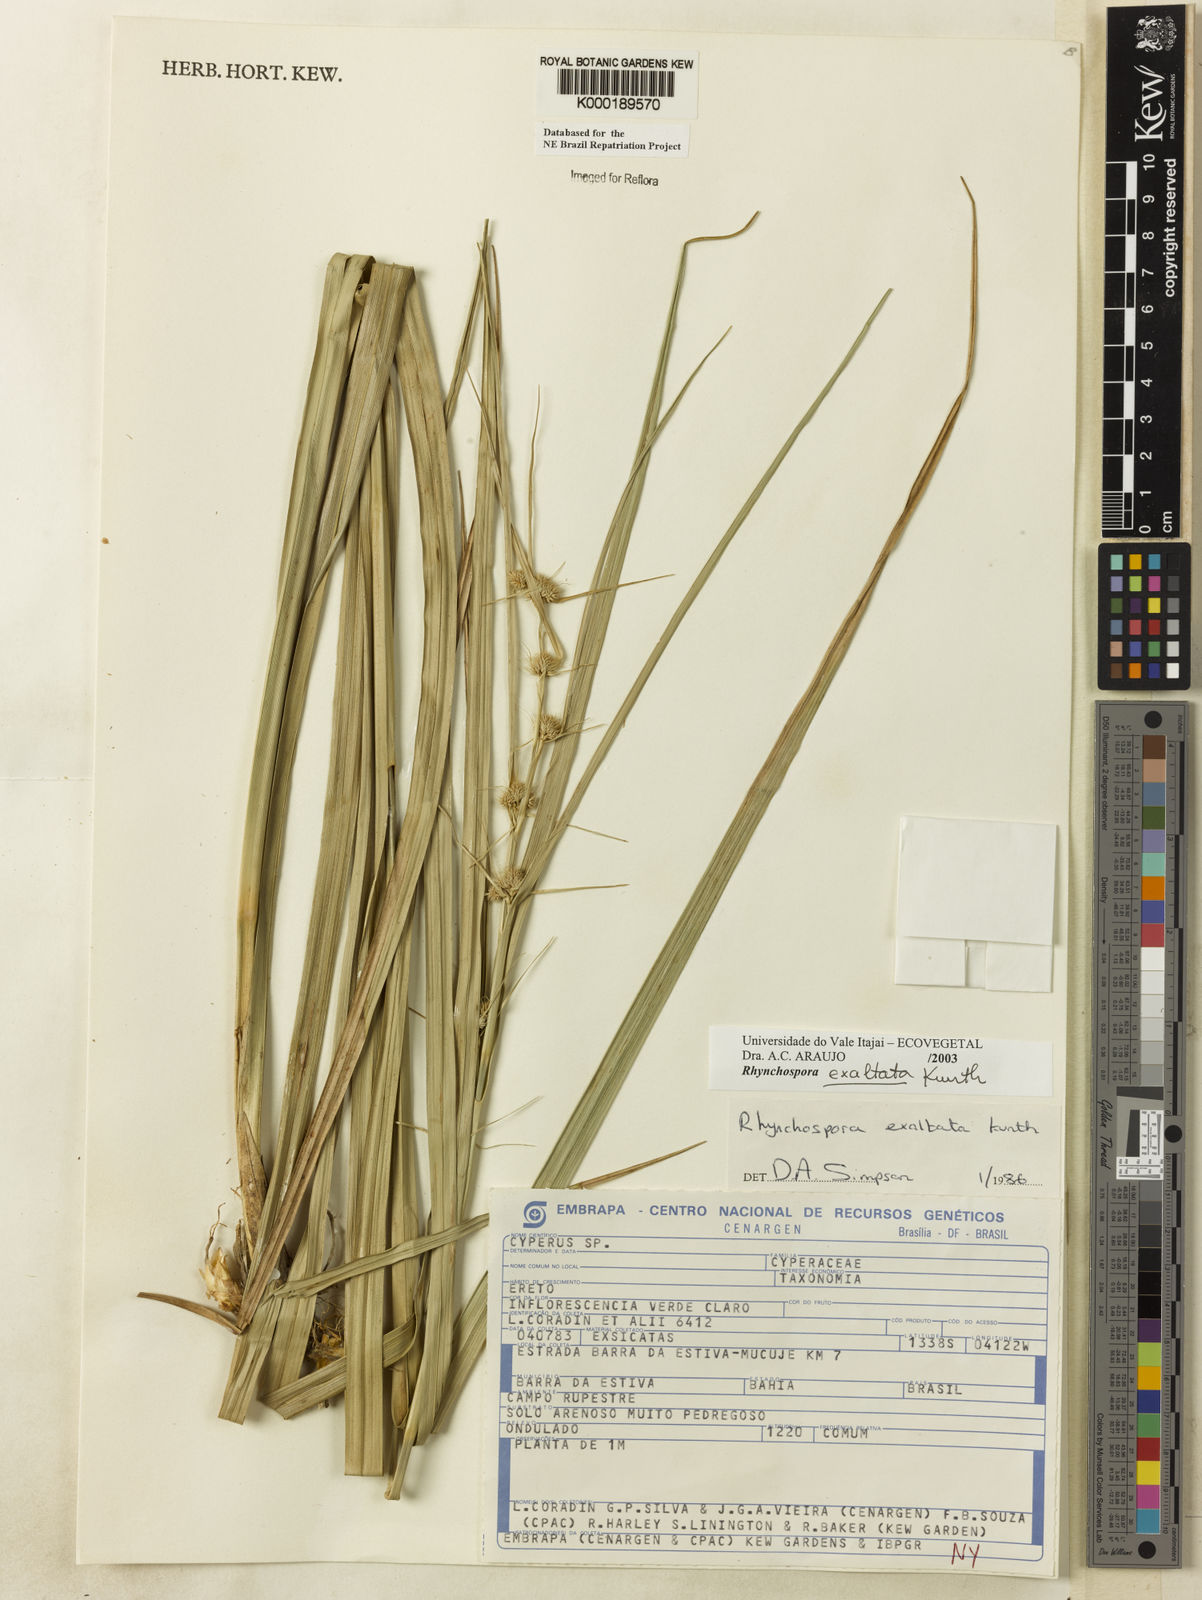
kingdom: Plantae
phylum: Tracheophyta
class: Liliopsida
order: Poales
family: Cyperaceae
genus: Rhynchospora
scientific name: Rhynchospora exaltata
